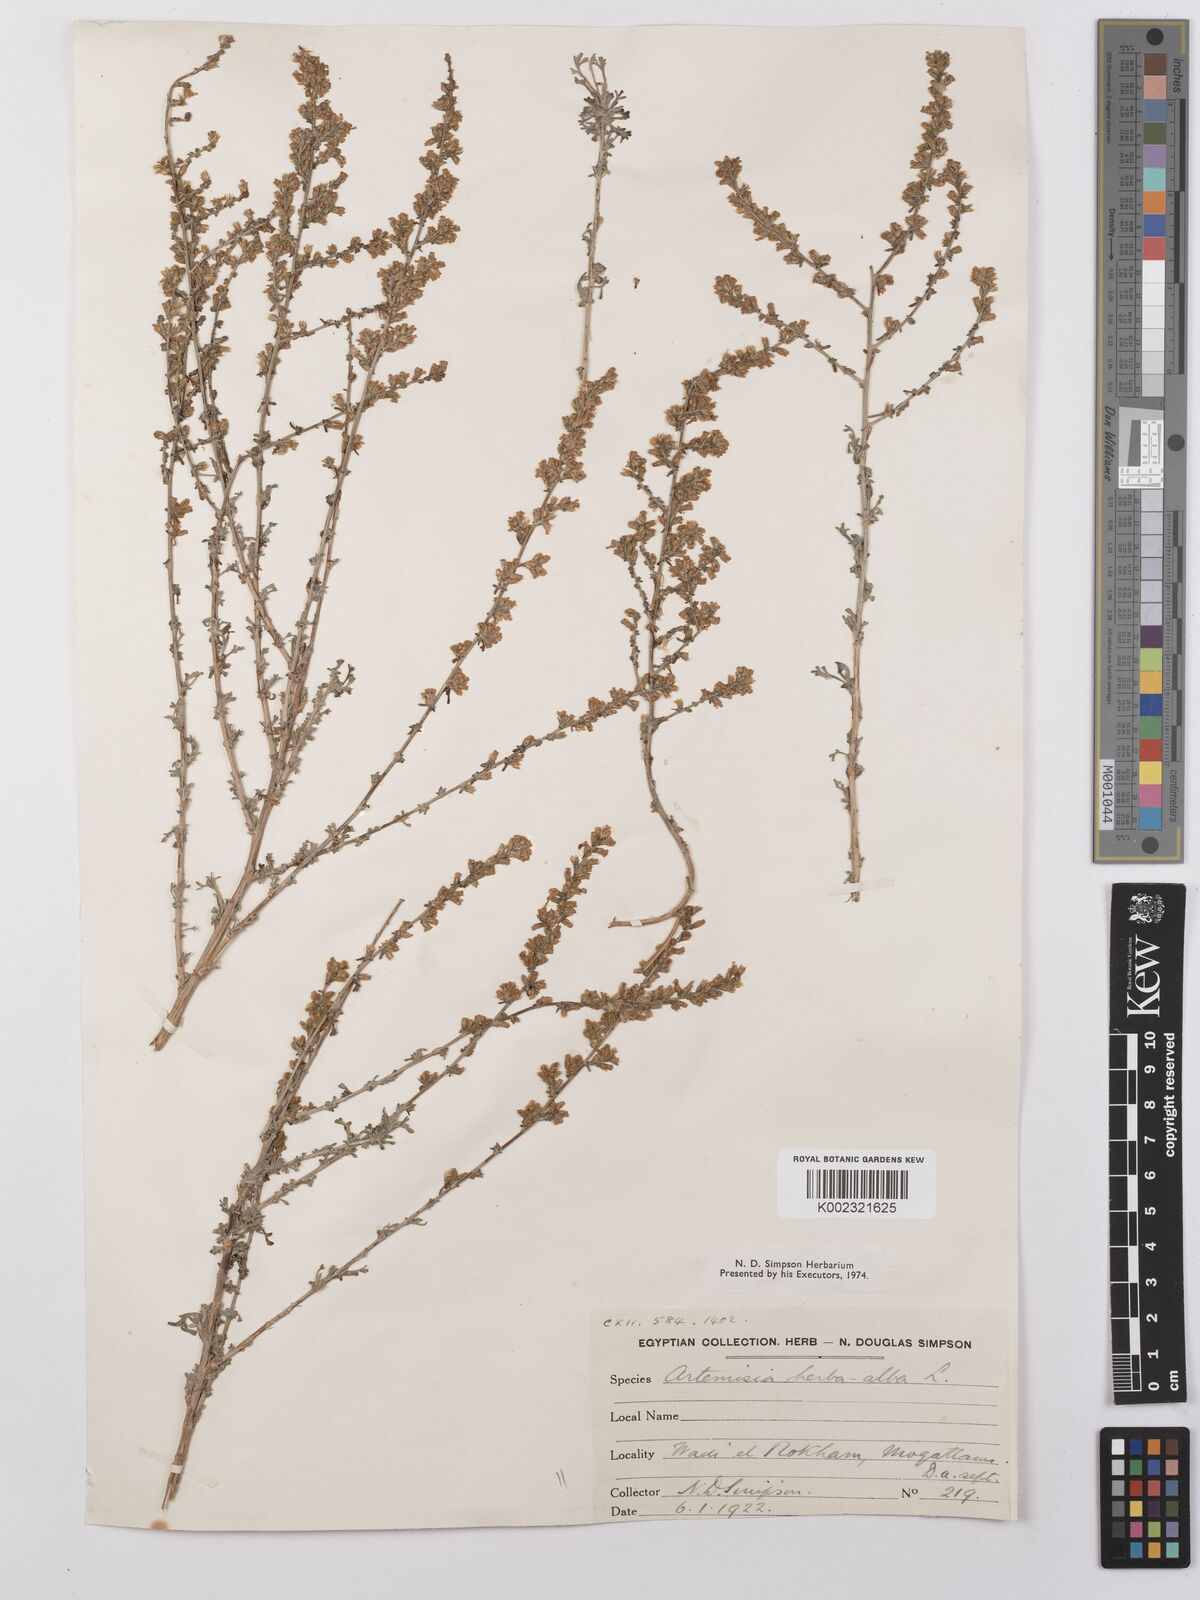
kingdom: Plantae
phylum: Tracheophyta
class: Magnoliopsida
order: Asterales
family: Asteraceae
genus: Artemisia
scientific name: Artemisia herba-alba
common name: White wormwood
